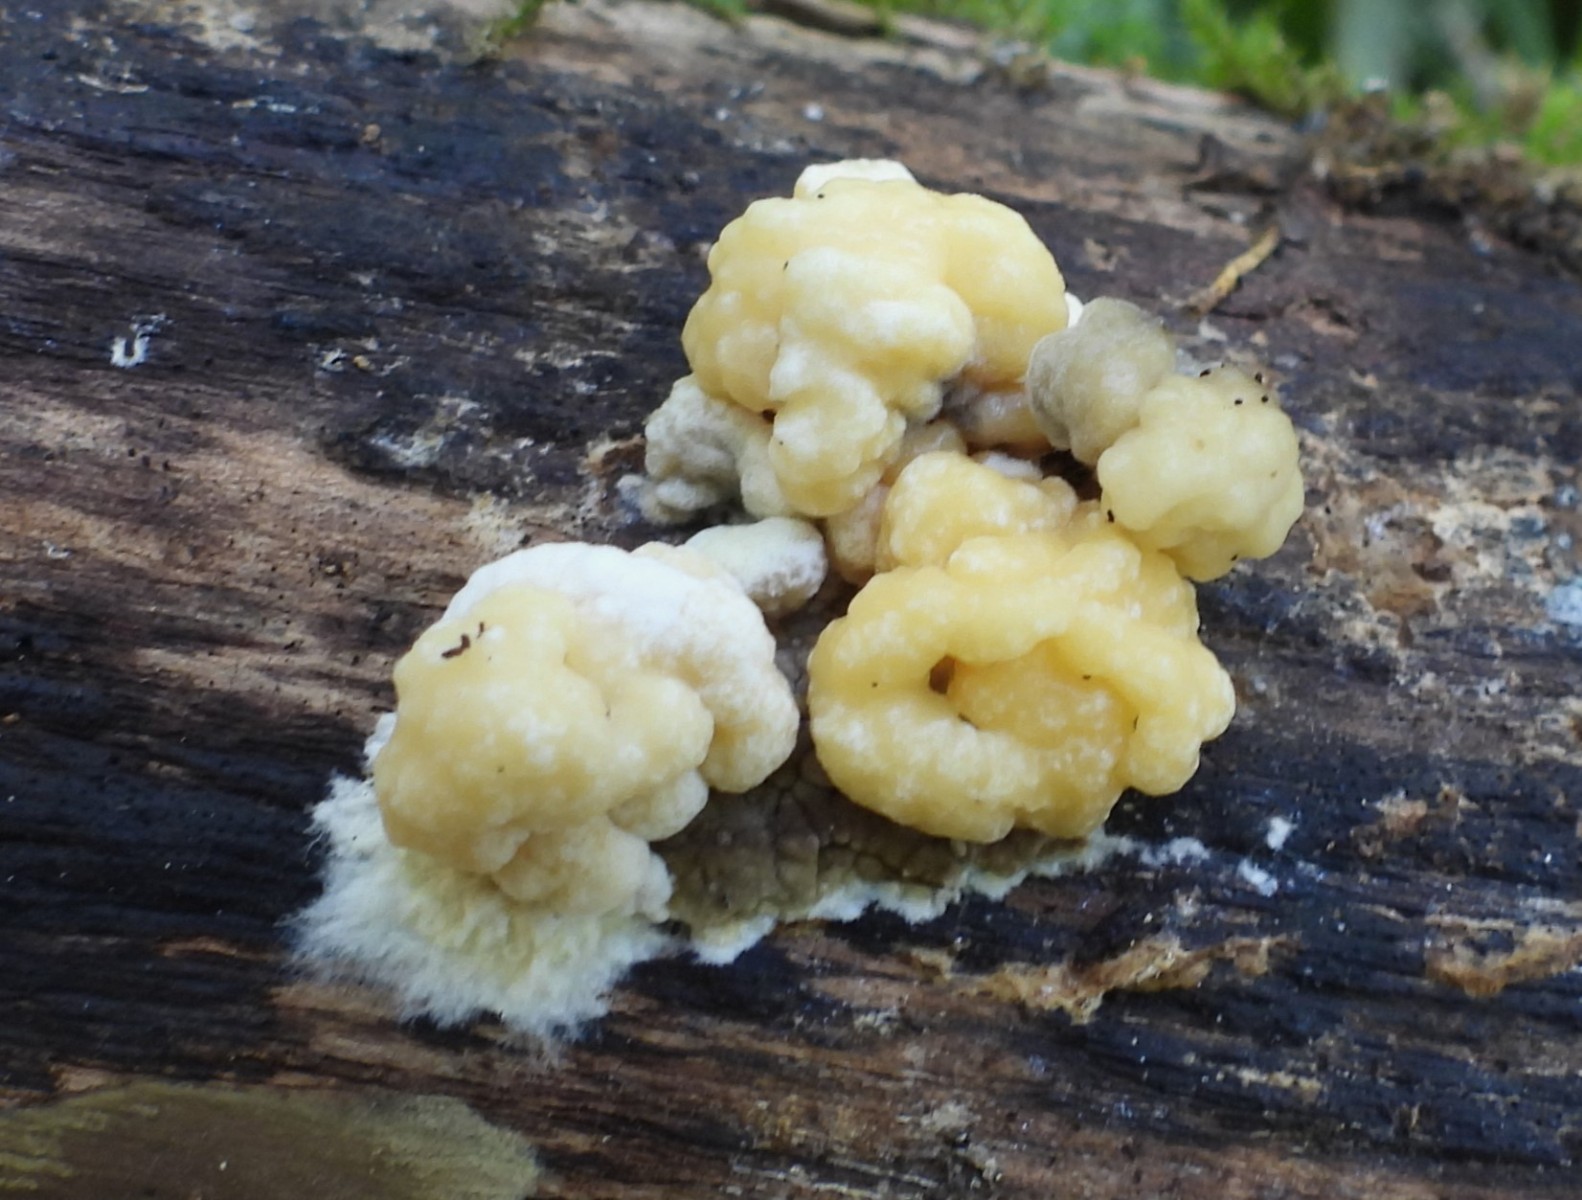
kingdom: Fungi
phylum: Ascomycota
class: Sordariomycetes
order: Xylariales
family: Hypoxylaceae
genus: Nodulisporium
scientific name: Nodulisporium cecidiogenes
